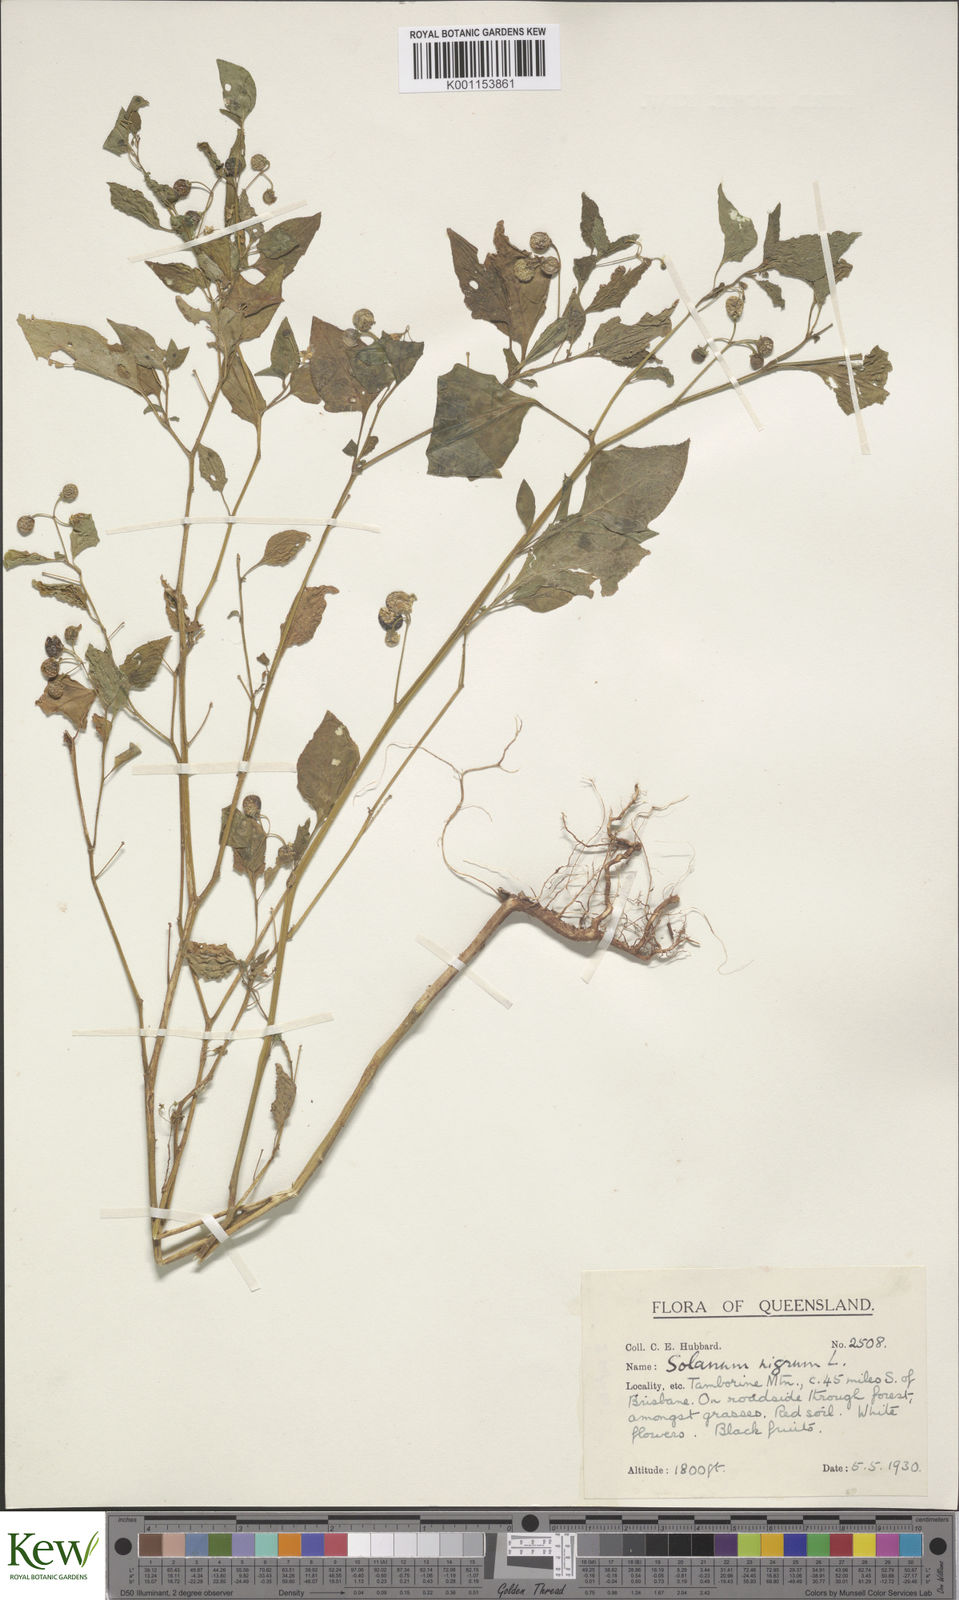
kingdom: Plantae
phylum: Tracheophyta
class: Magnoliopsida
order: Solanales
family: Solanaceae
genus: Solanum
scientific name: Solanum americanum
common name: American black nightshade
